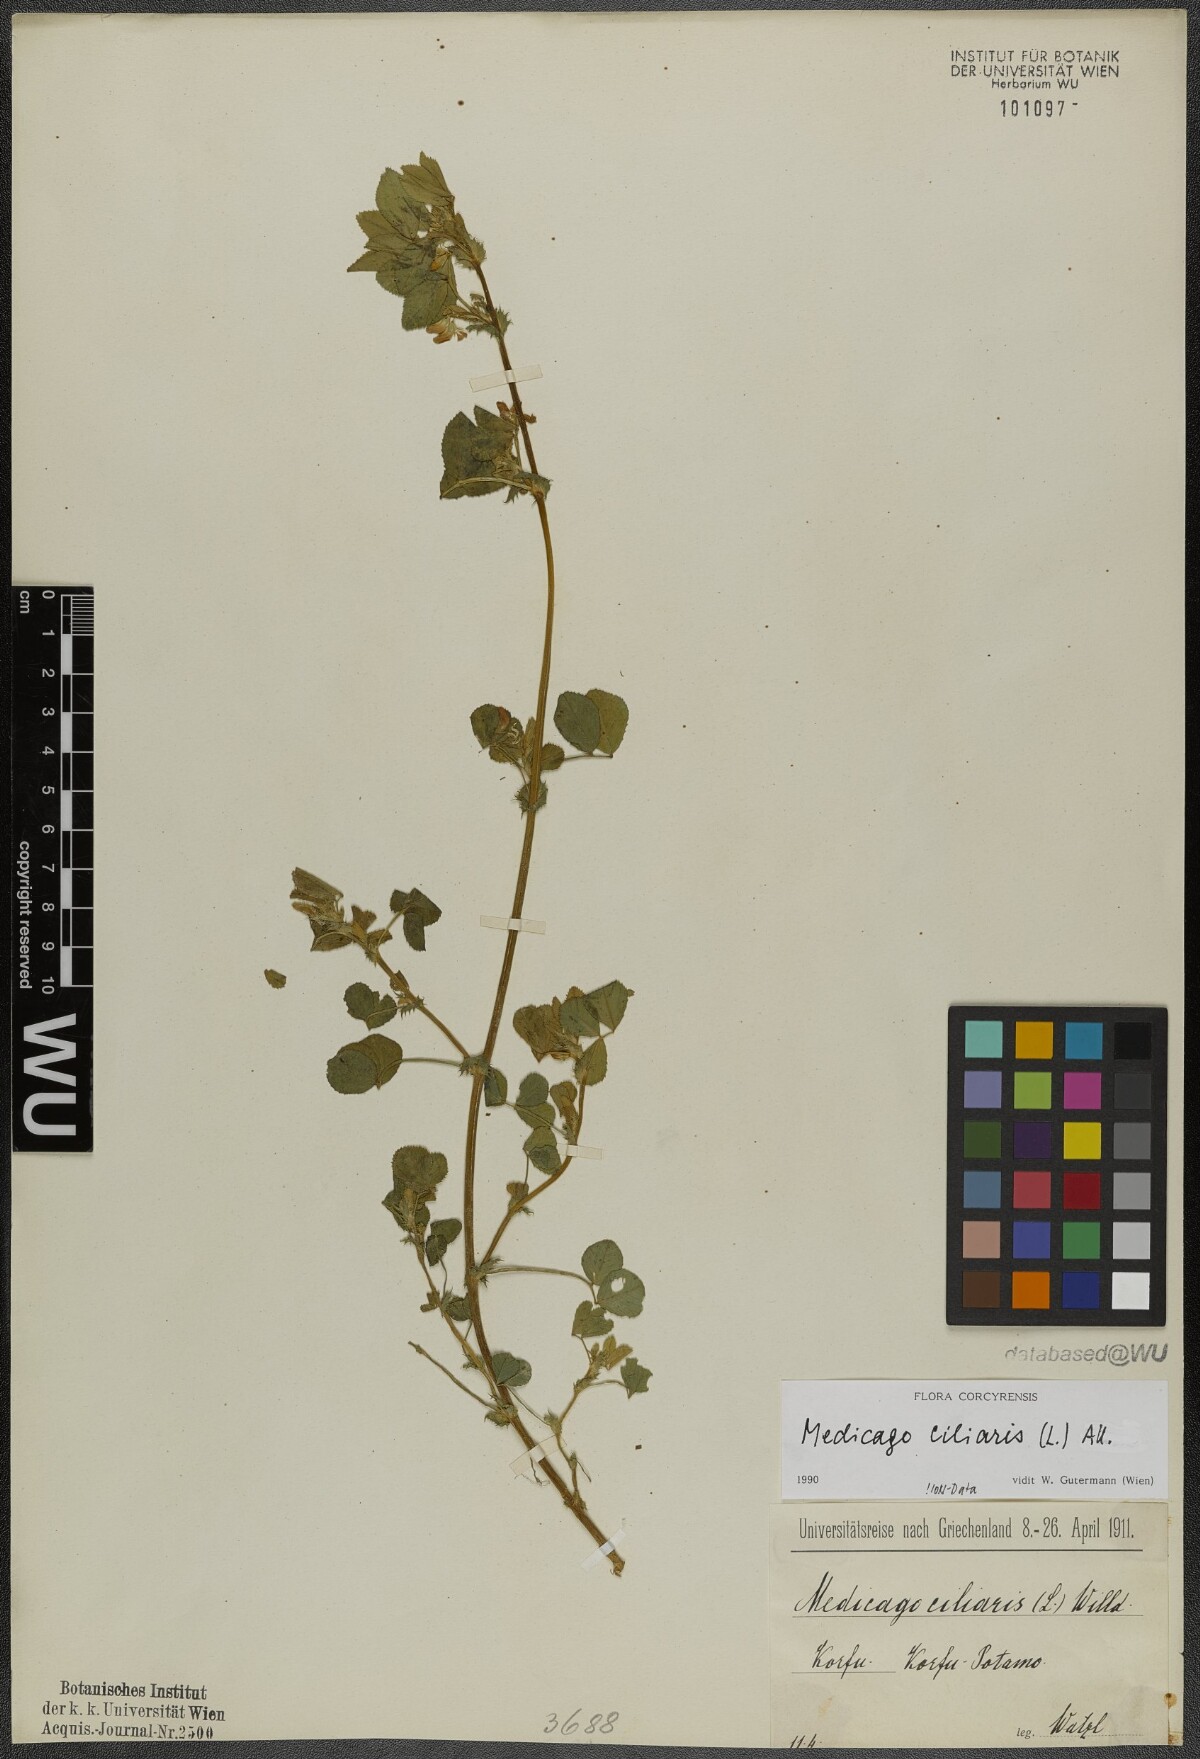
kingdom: Plantae
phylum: Tracheophyta
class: Magnoliopsida
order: Fabales
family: Fabaceae
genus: Medicago
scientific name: Medicago ciliaris
